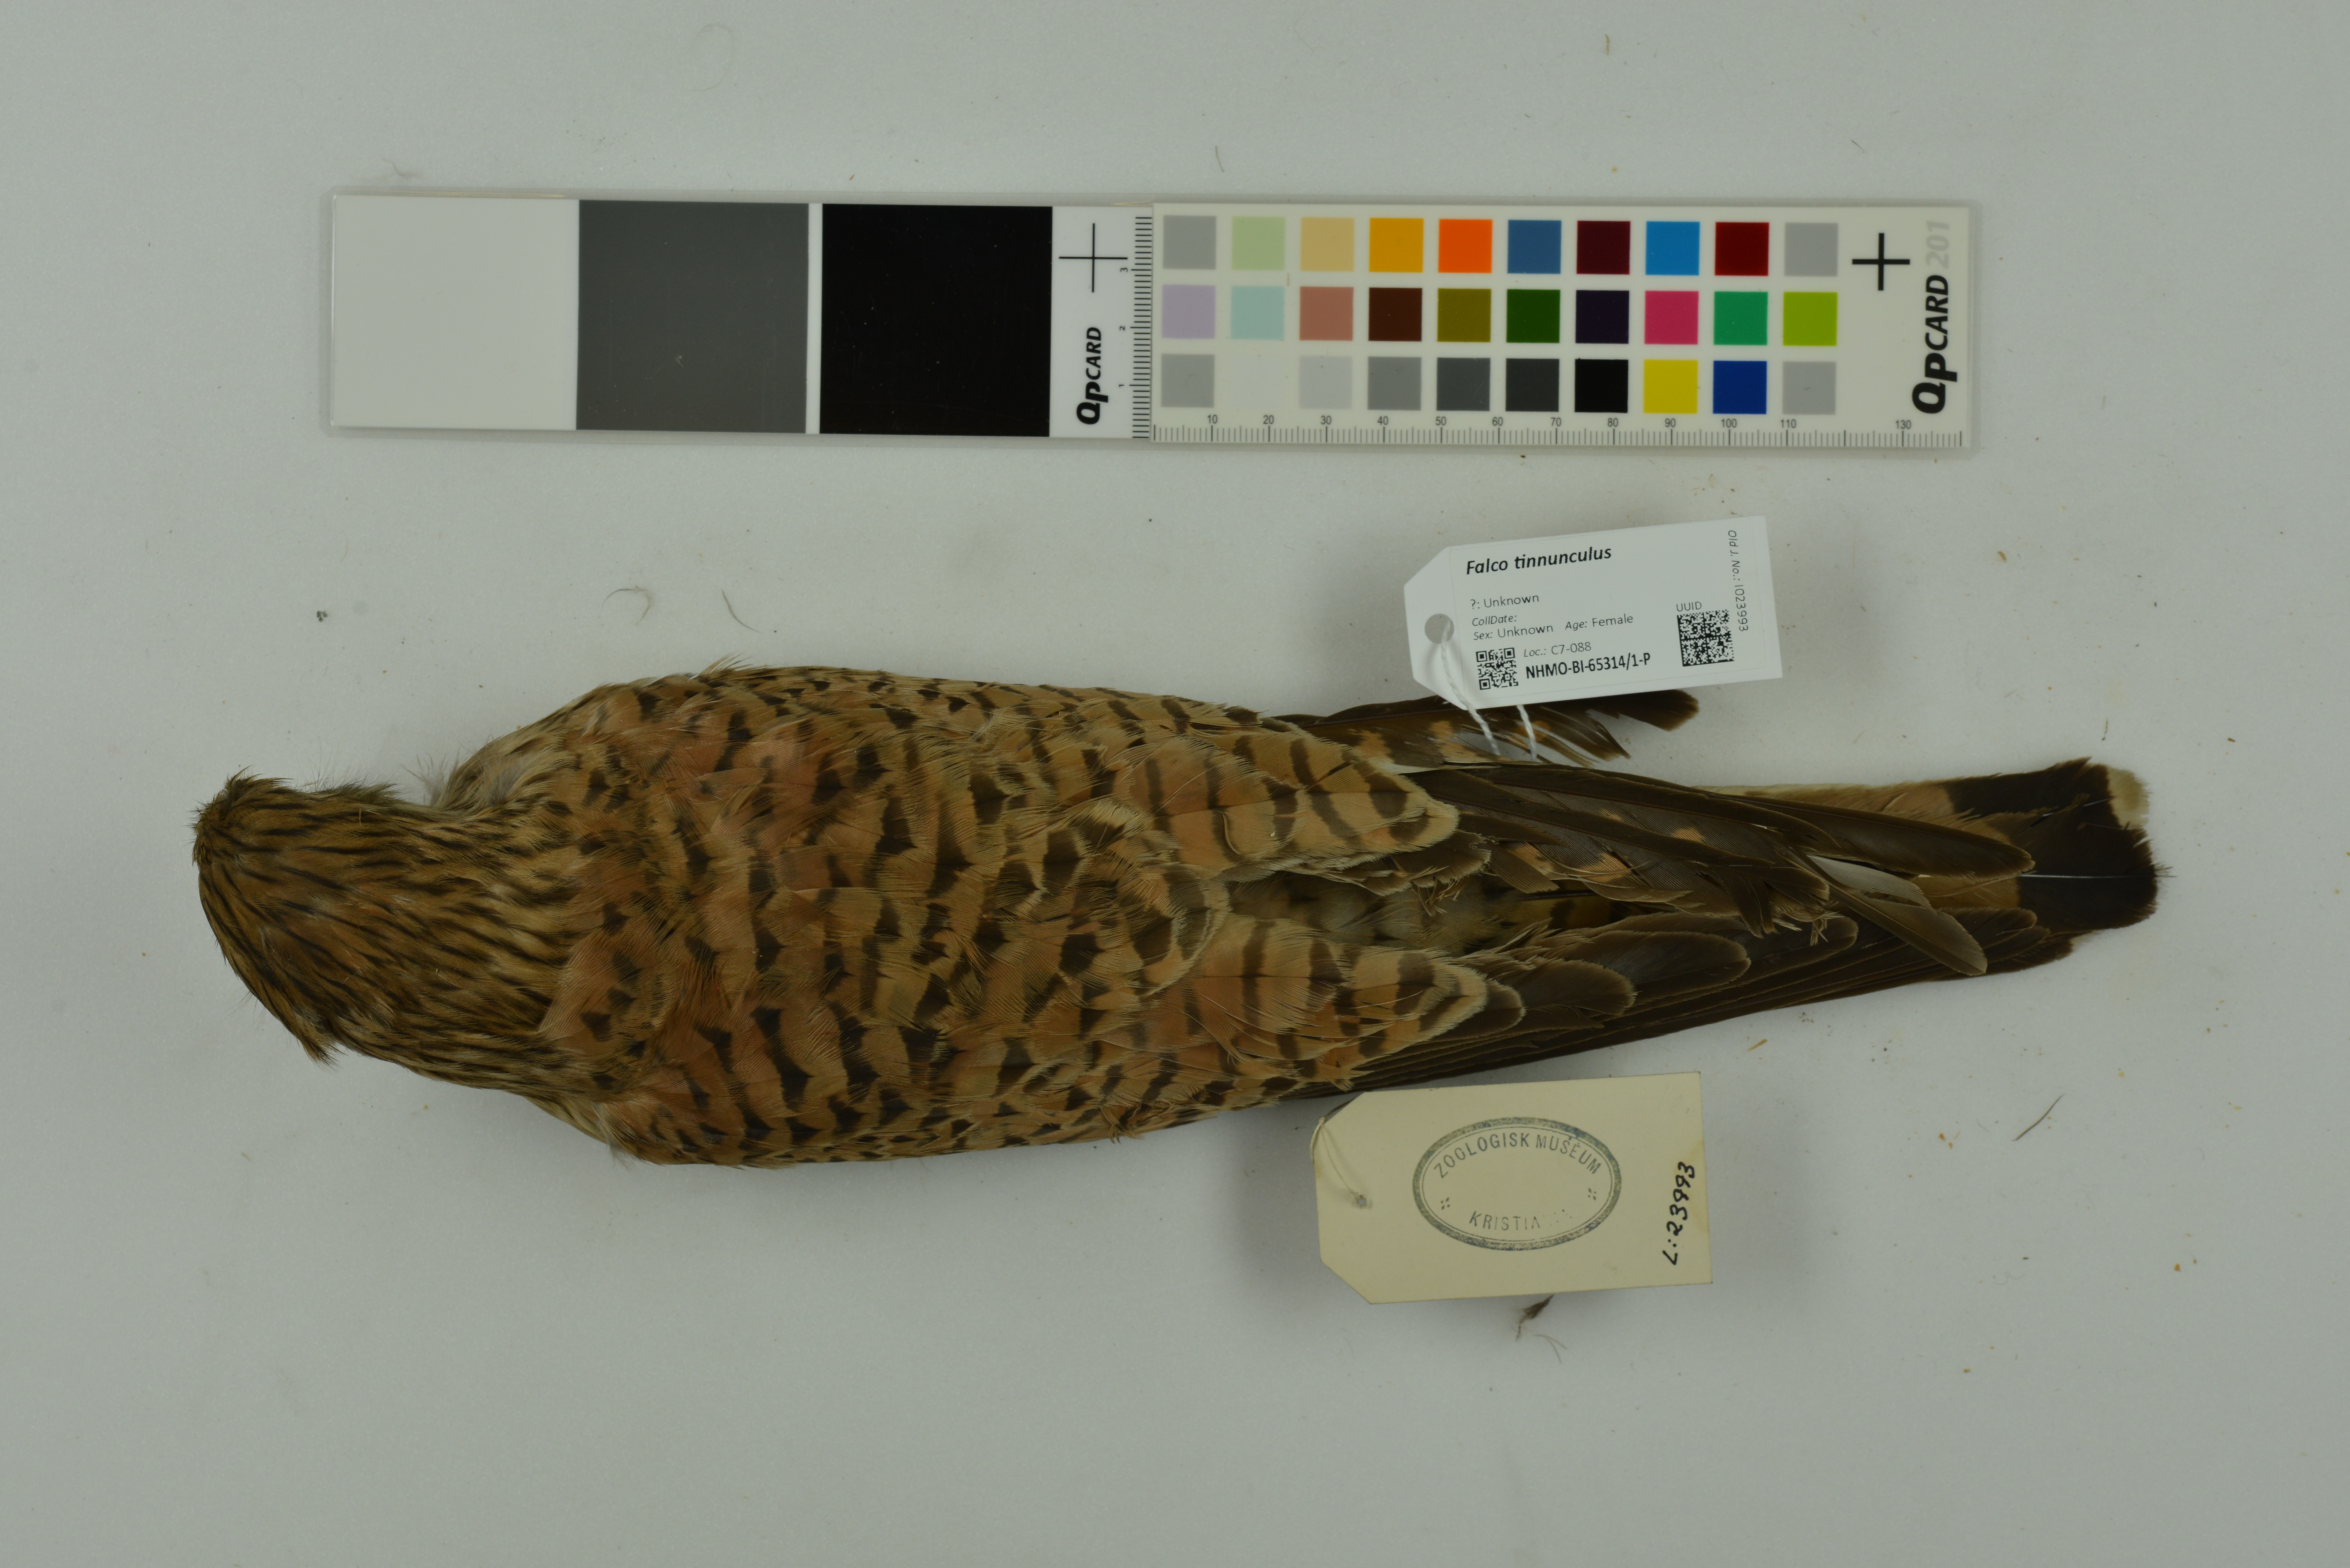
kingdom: Animalia
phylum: Chordata
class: Aves
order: Falconiformes
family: Falconidae
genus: Falco
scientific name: Falco tinnunculus
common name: Common kestrel
